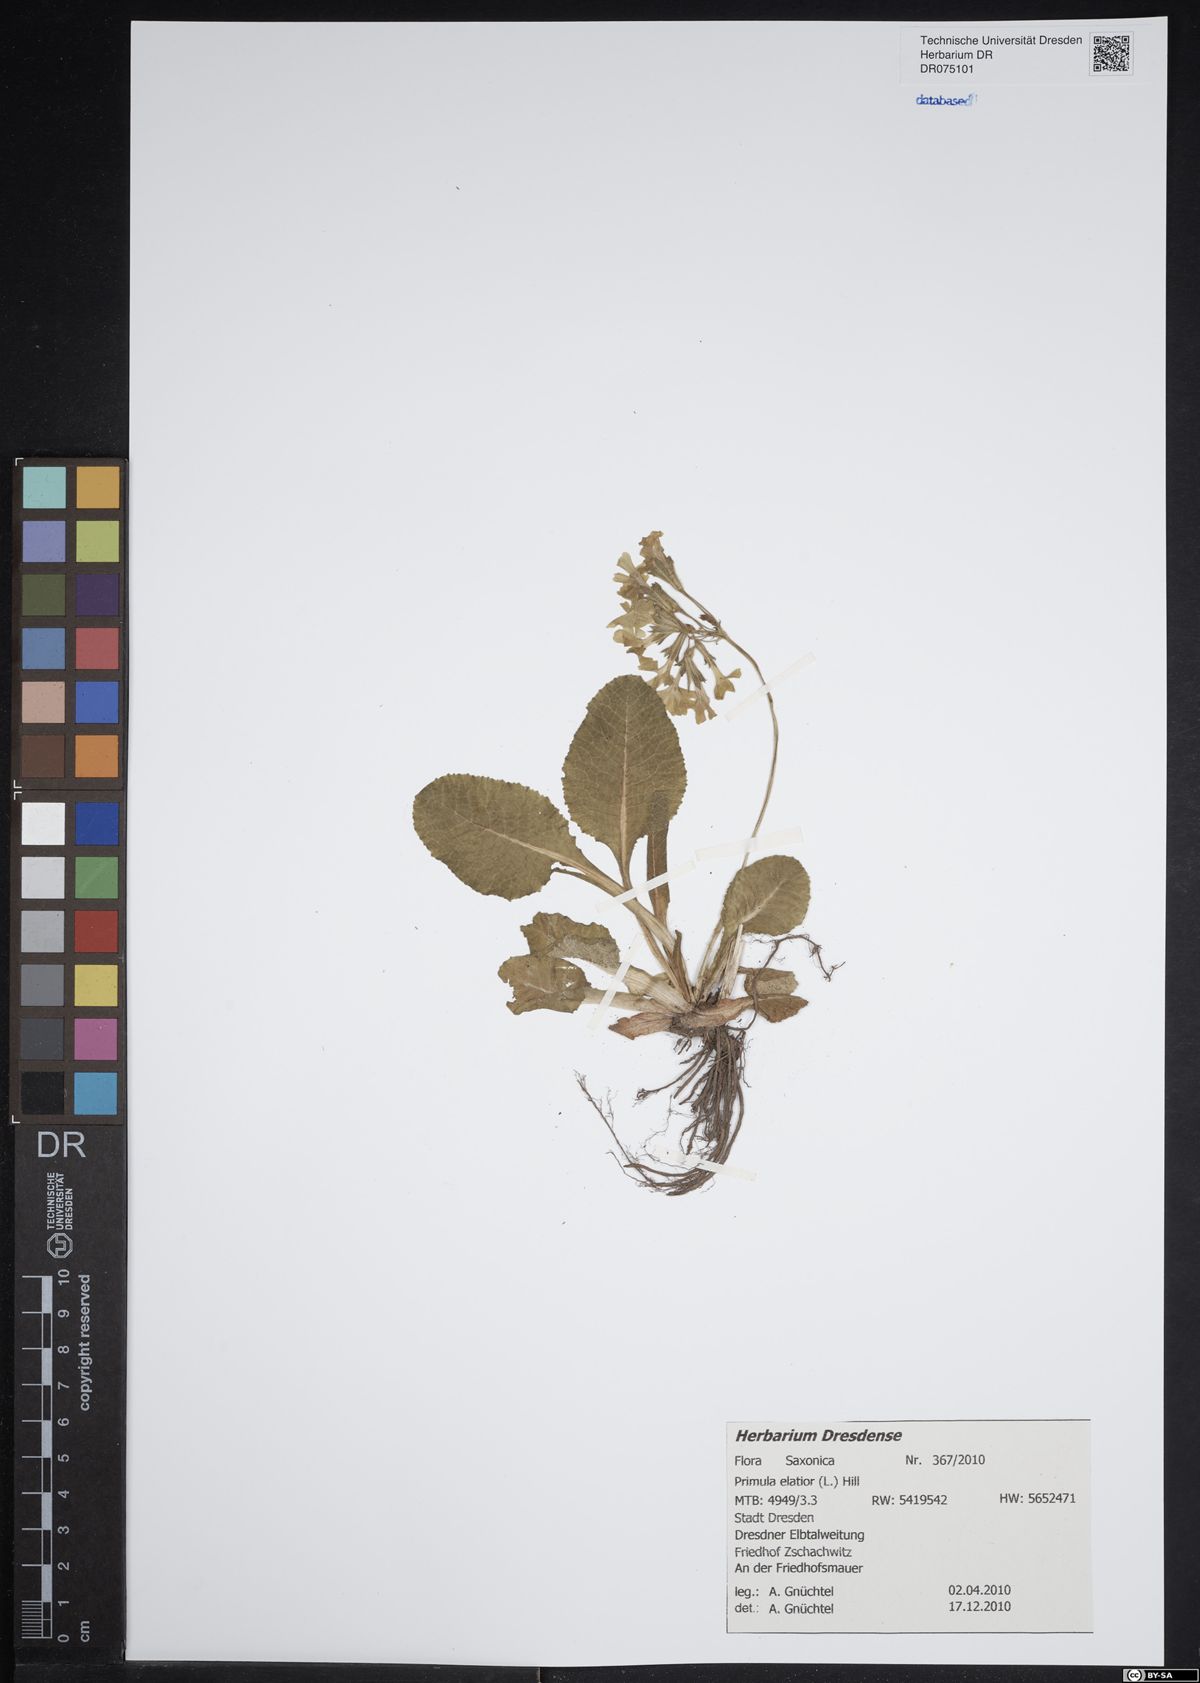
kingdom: Plantae
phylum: Tracheophyta
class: Magnoliopsida
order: Ericales
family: Primulaceae
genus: Primula
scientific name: Primula elatior
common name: Oxlip
